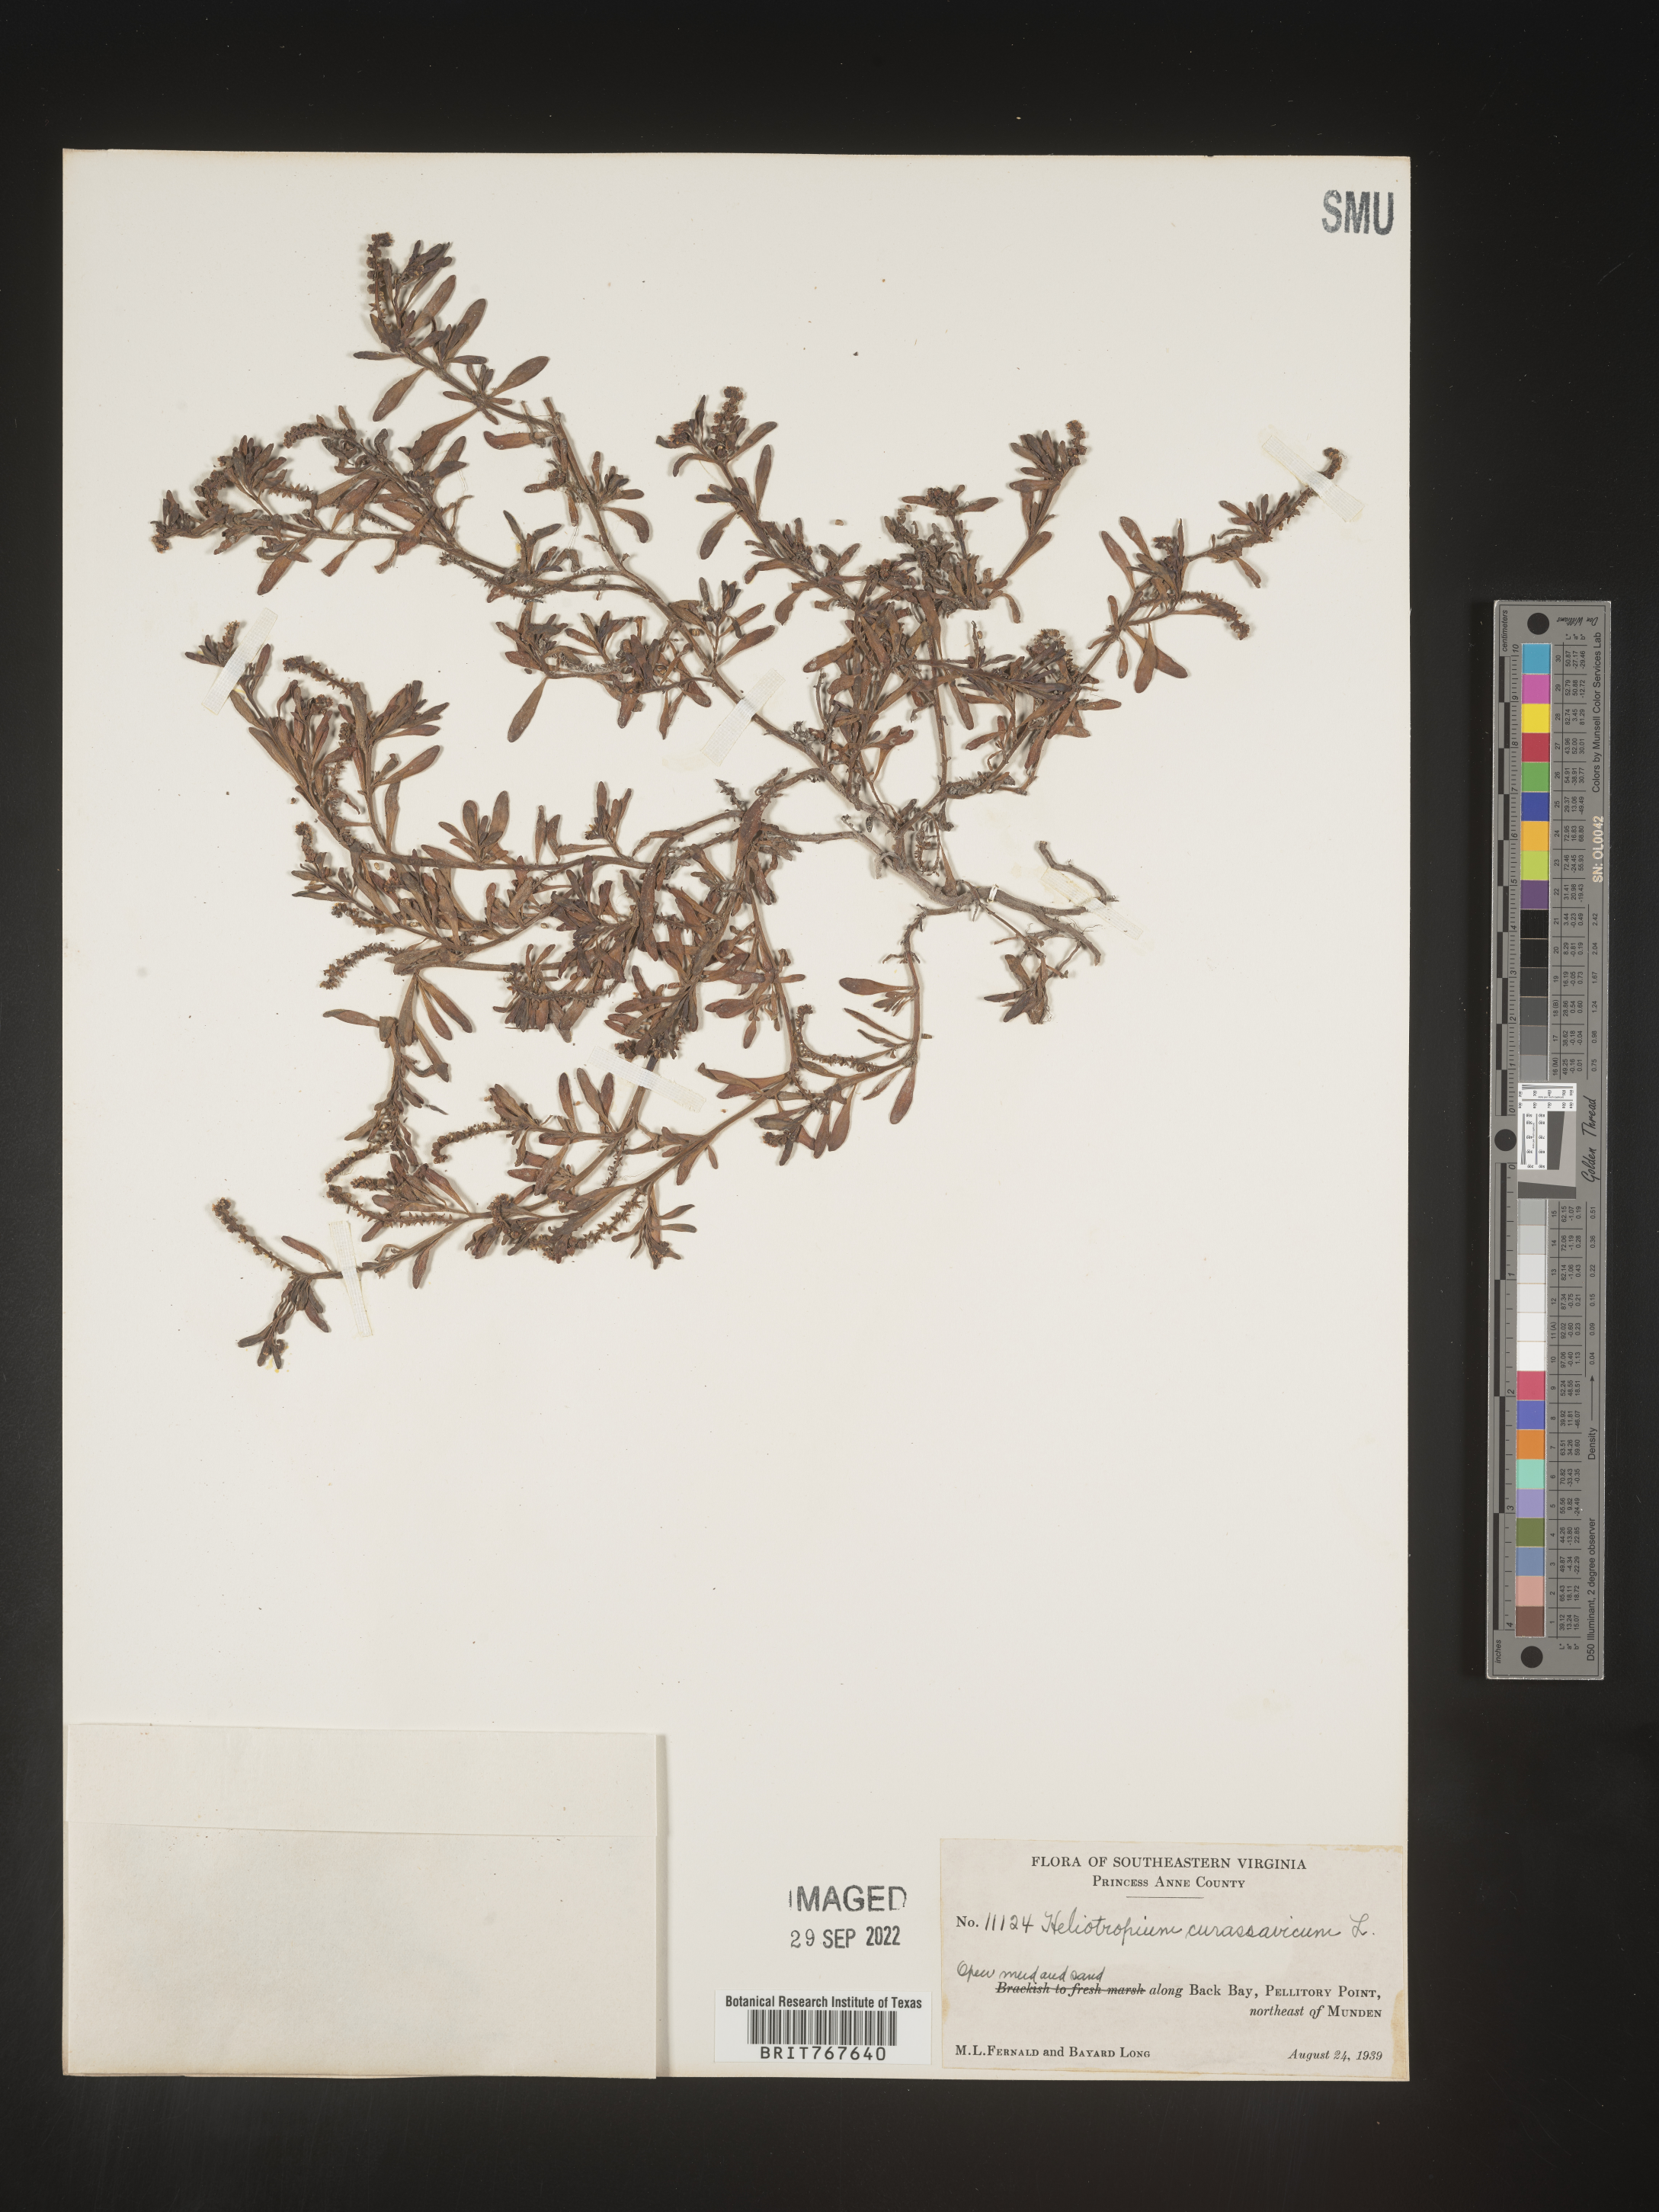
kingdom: Plantae
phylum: Tracheophyta
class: Magnoliopsida
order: Boraginales
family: Heliotropiaceae
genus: Heliotropium
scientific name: Heliotropium curassavicum
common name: Seaside heliotrope
